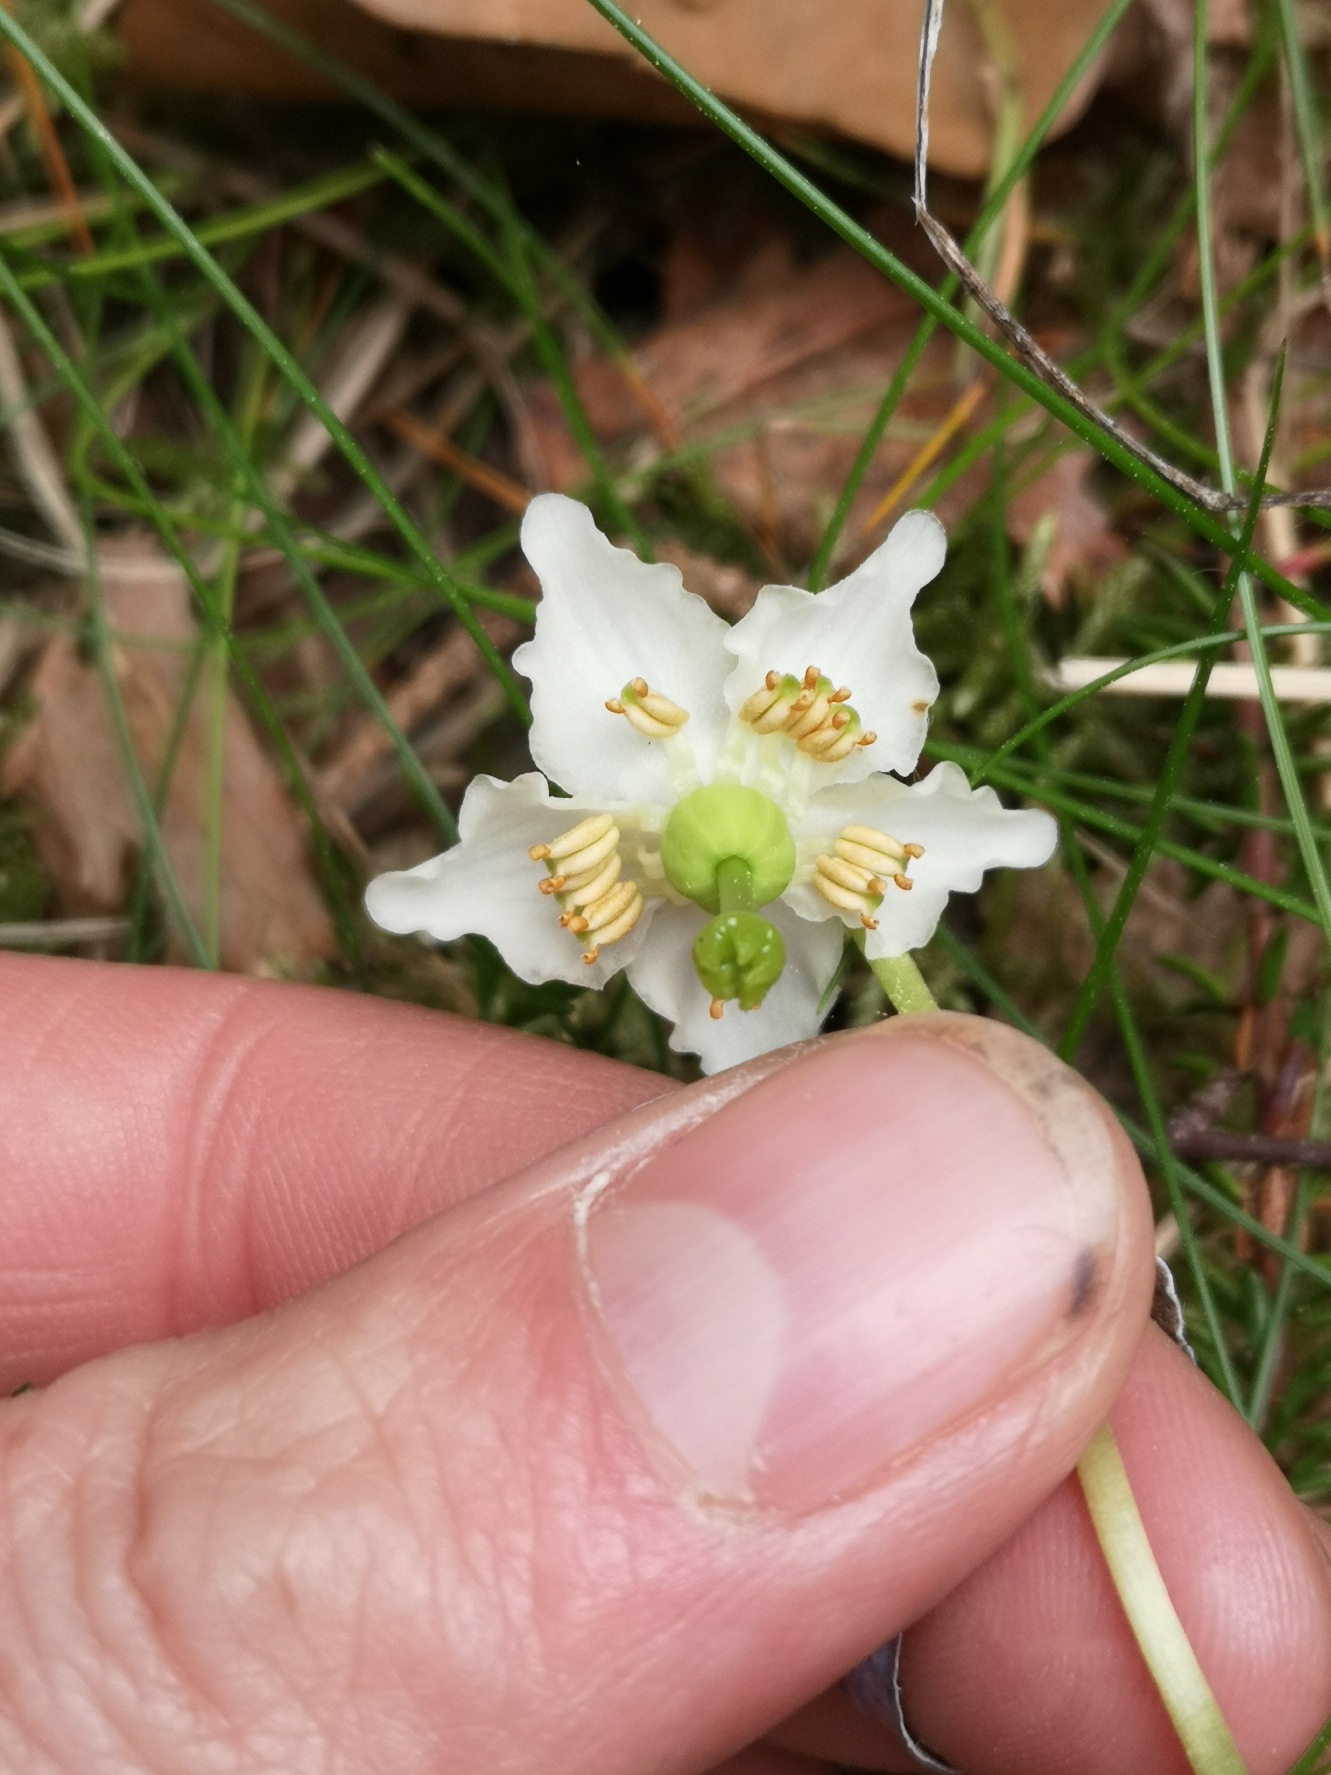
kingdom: Plantae
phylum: Tracheophyta
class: Magnoliopsida
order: Ericales
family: Ericaceae
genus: Moneses
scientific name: Moneses uniflora
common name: Enblomstret vintergrøn
